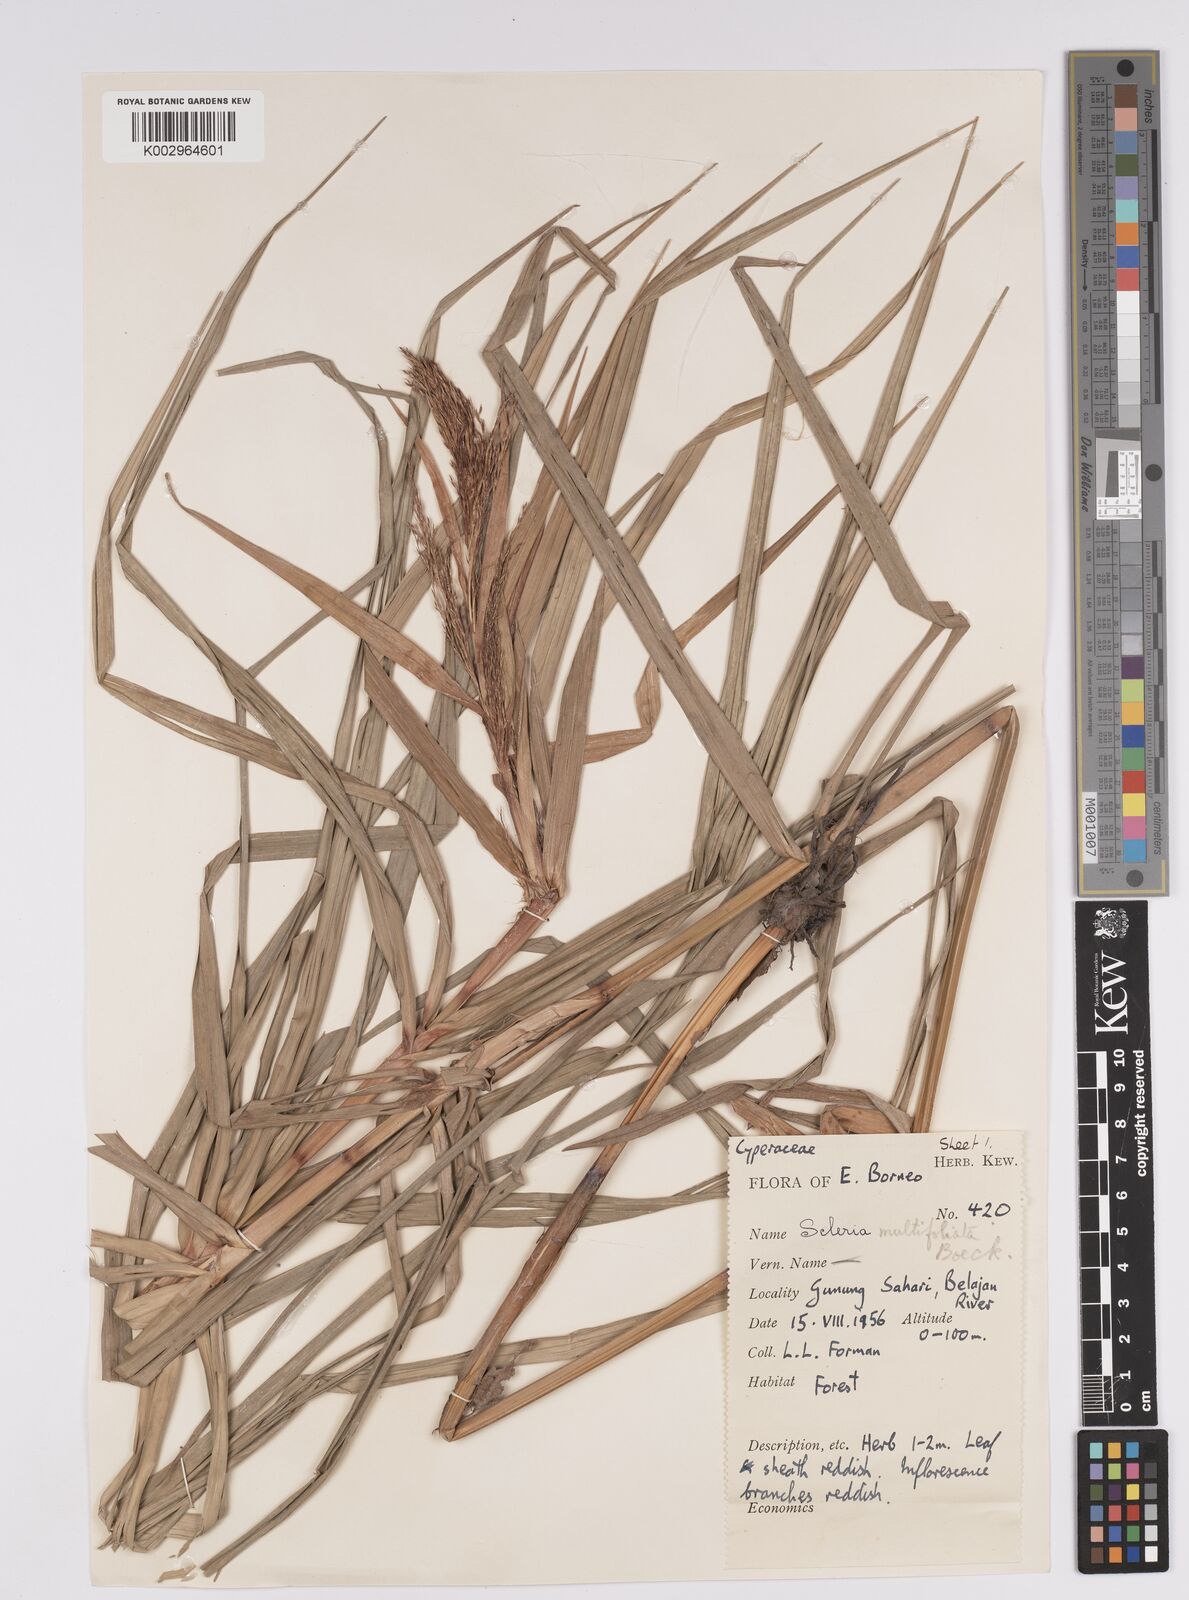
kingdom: Plantae
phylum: Tracheophyta
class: Liliopsida
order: Poales
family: Cyperaceae
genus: Scleria
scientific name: Scleria purpurascens
